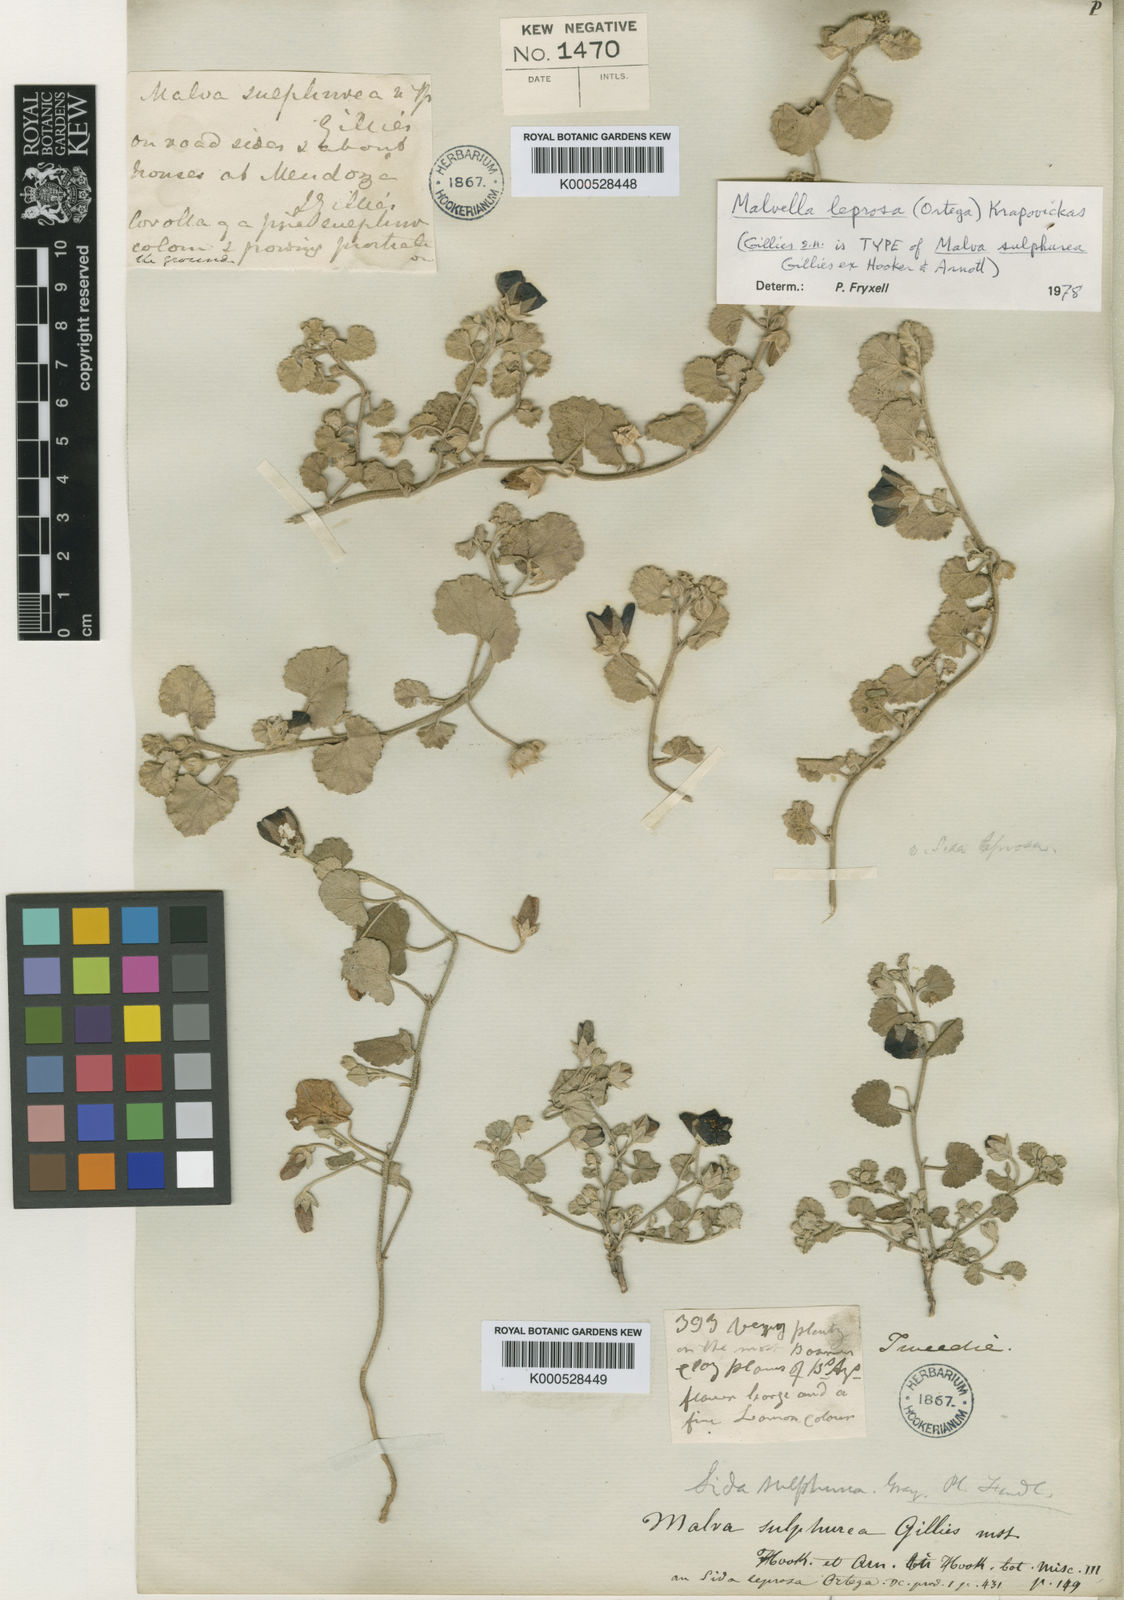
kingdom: Plantae
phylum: Tracheophyta
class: Magnoliopsida
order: Malvales
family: Malvaceae
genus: Malvella
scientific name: Malvella leprosa
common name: Alkali-mallow
